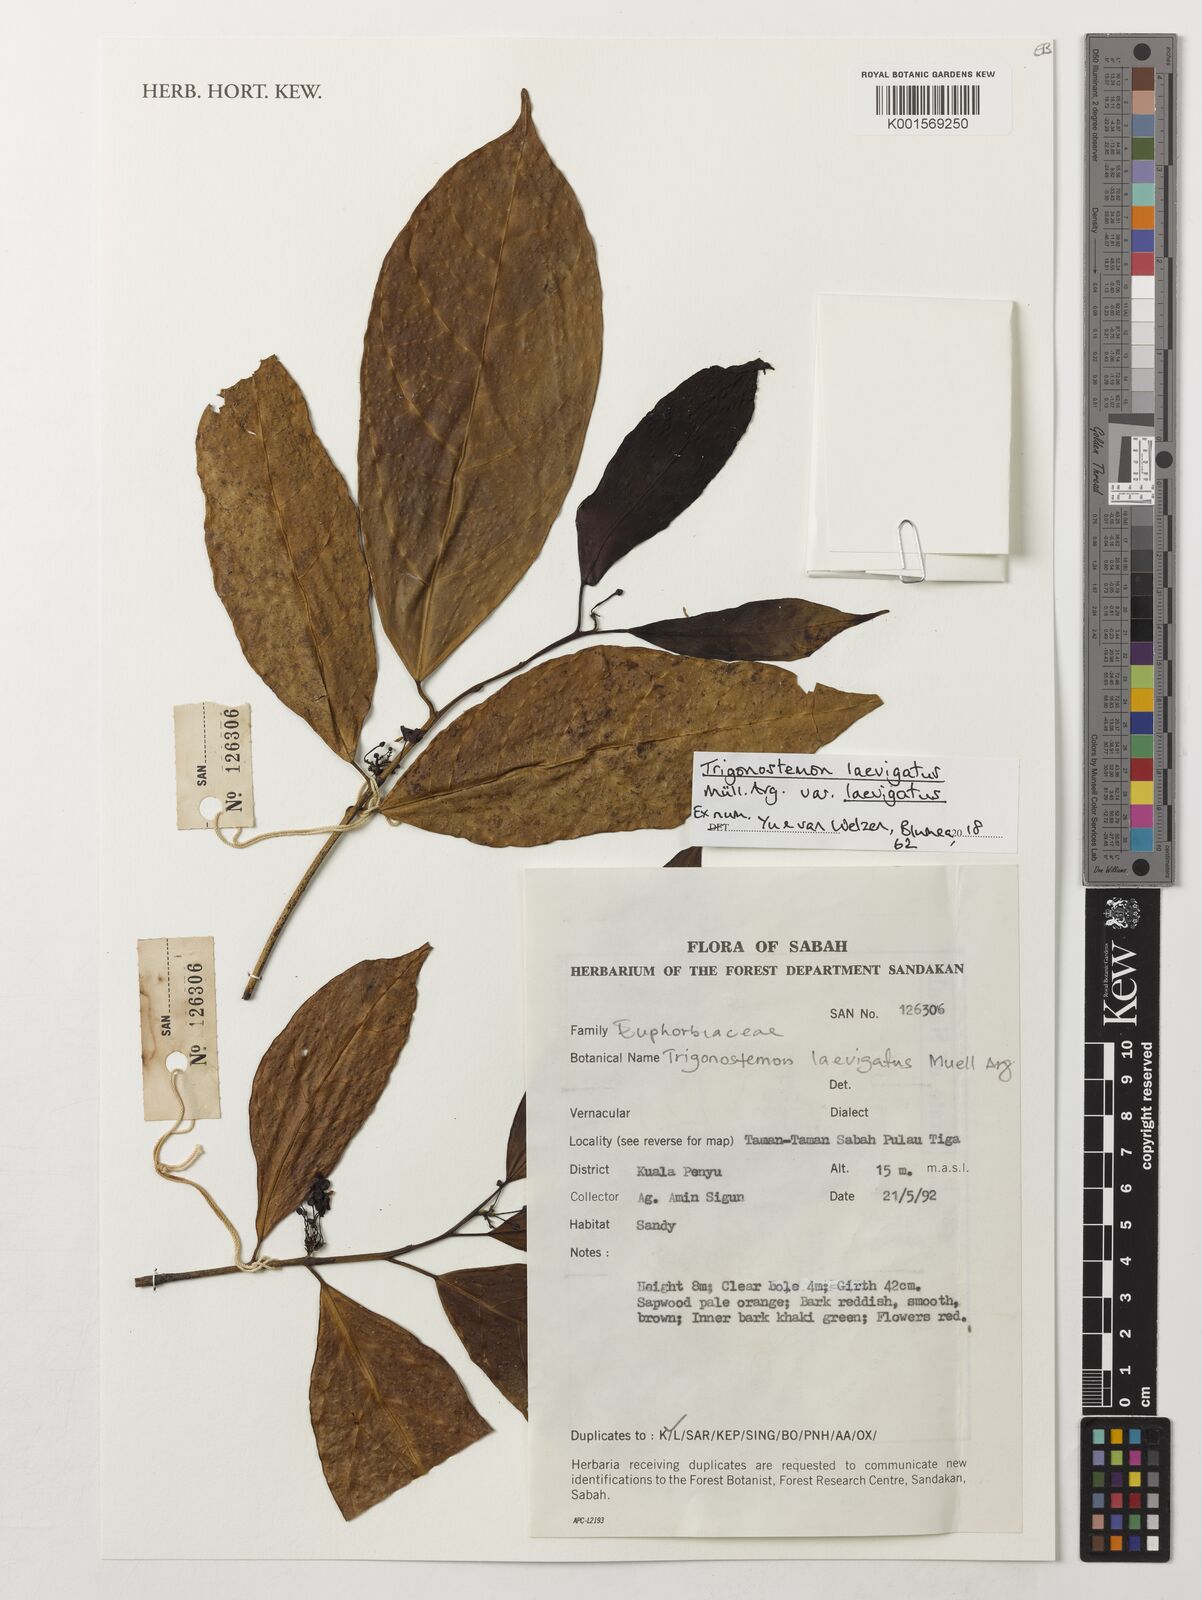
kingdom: Plantae
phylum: Tracheophyta
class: Magnoliopsida
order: Malpighiales
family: Euphorbiaceae
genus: Trigonostemon
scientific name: Trigonostemon laevigatus
